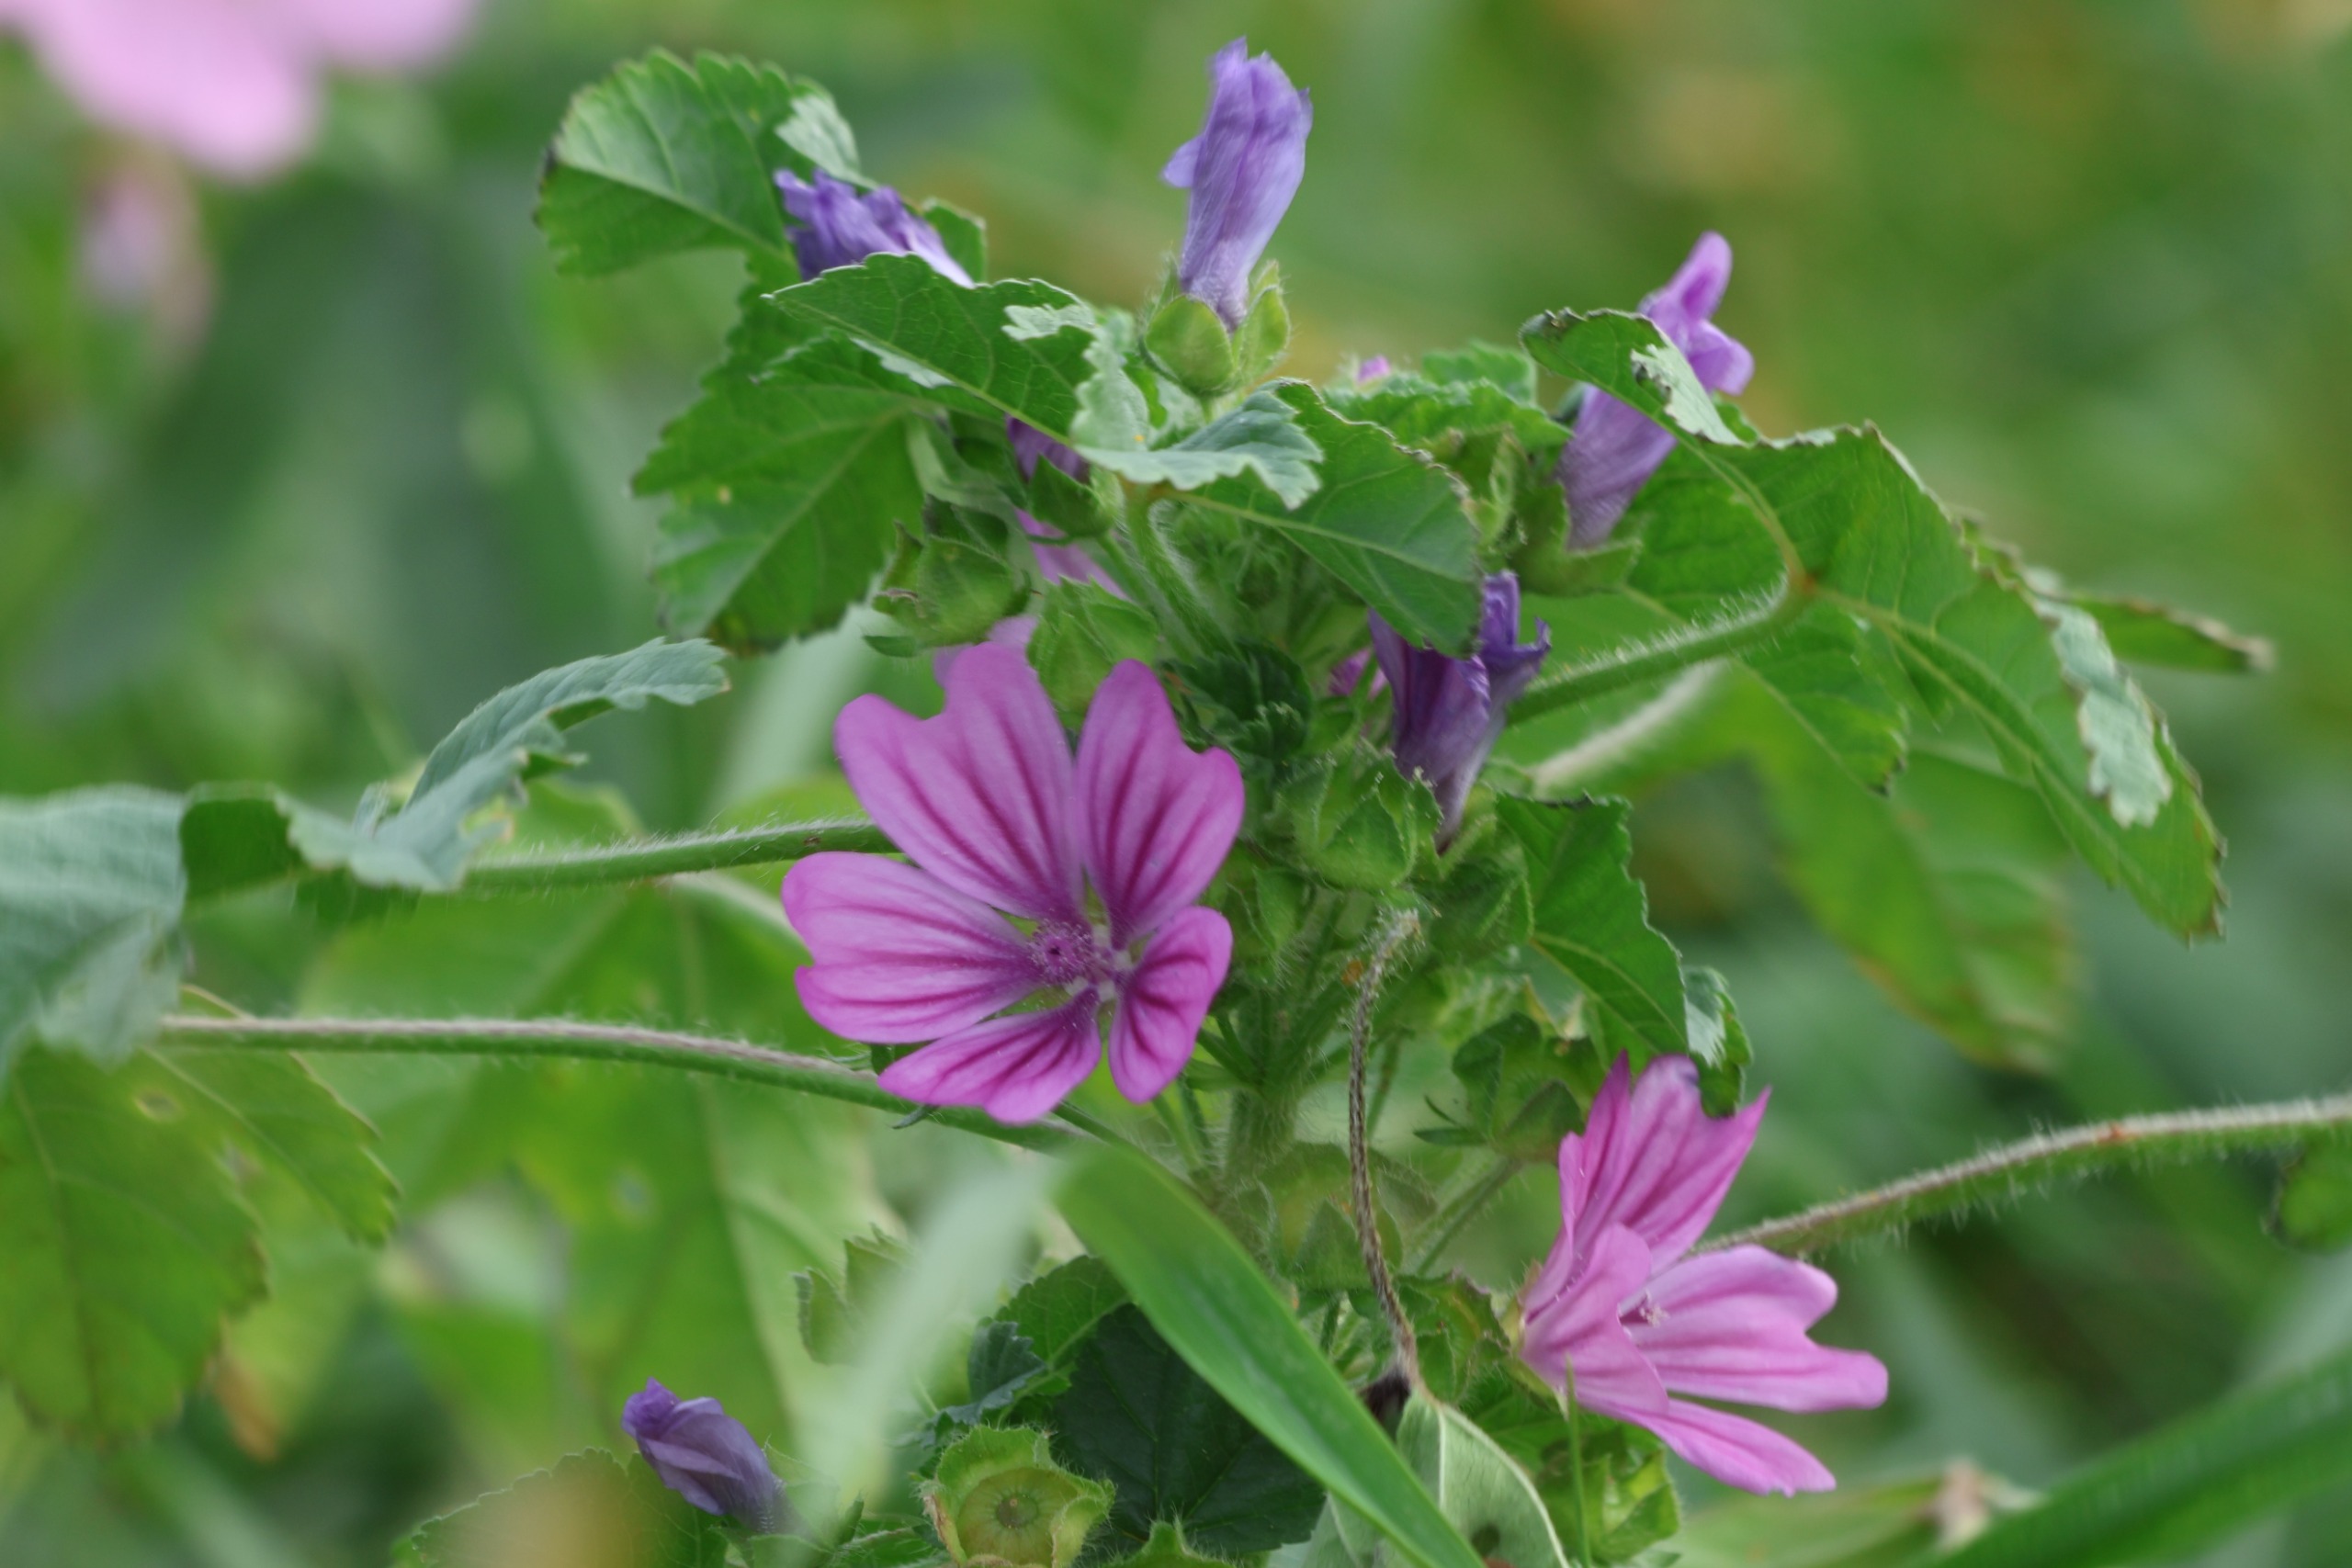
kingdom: Plantae
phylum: Tracheophyta
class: Magnoliopsida
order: Malvales
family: Malvaceae
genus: Malva
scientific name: Malva sylvestris
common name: Almindelig katost
